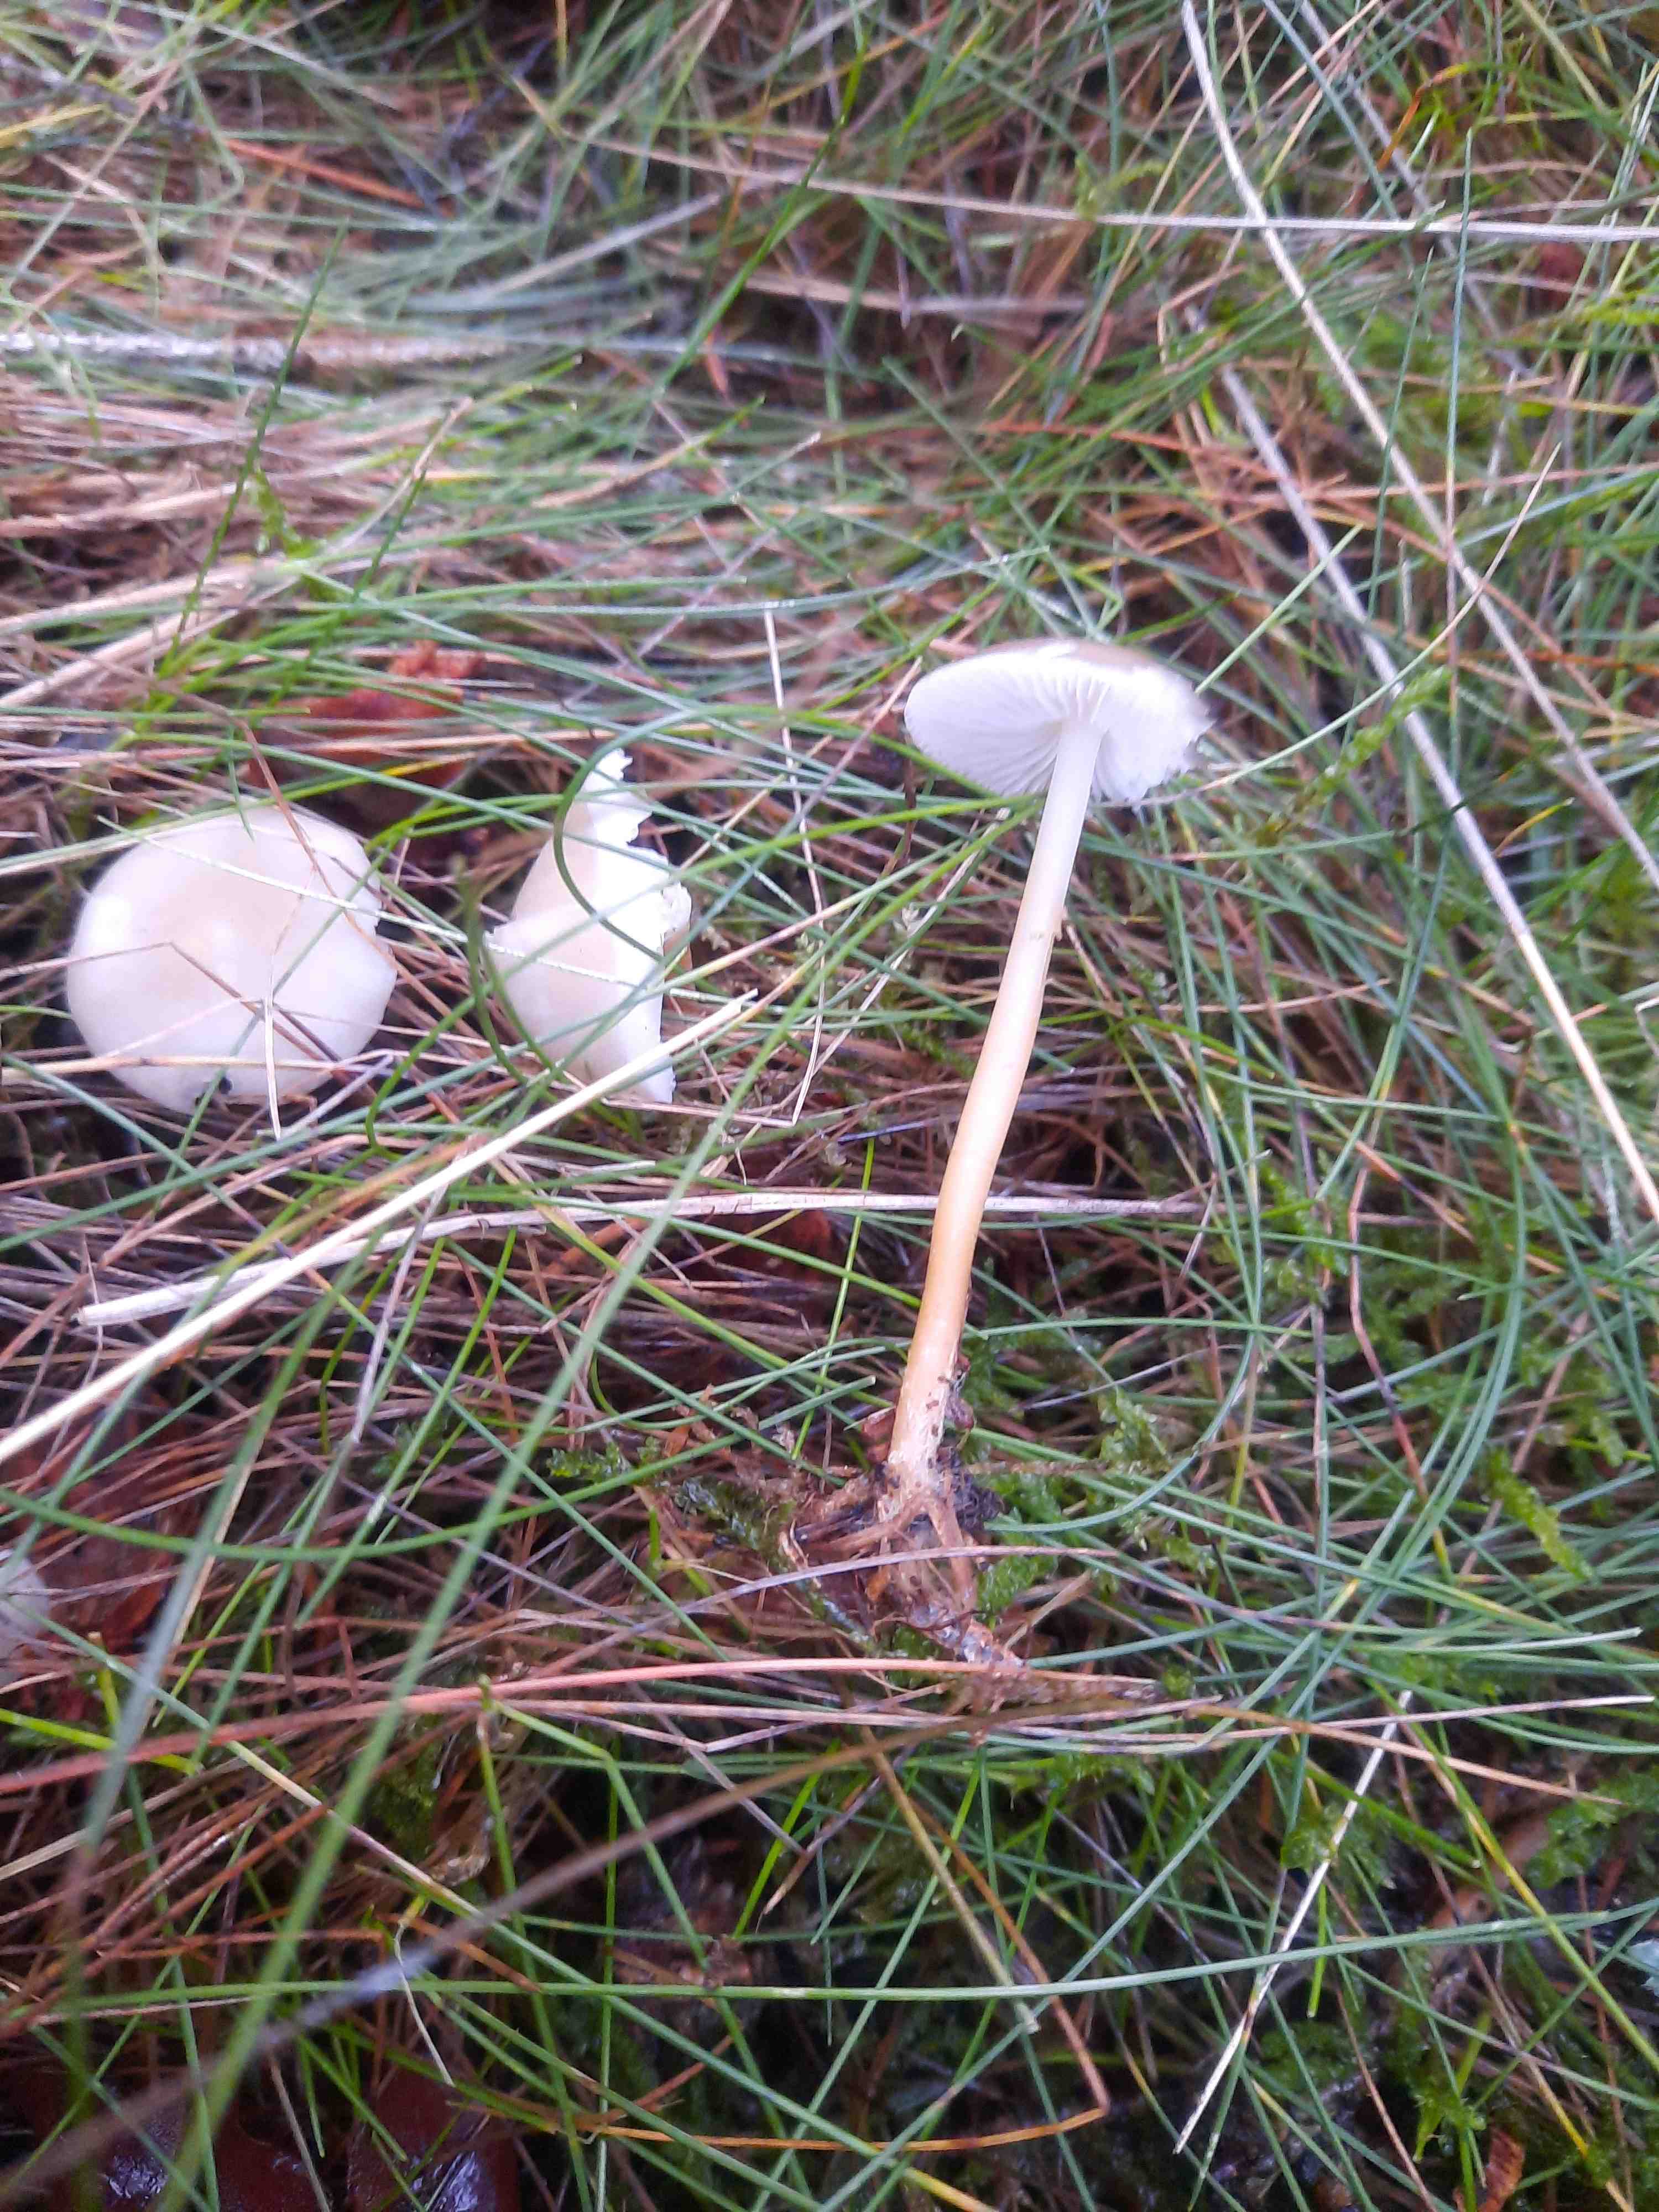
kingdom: Fungi
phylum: Basidiomycota
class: Agaricomycetes
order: Agaricales
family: Physalacriaceae
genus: Strobilurus
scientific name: Strobilurus esculentus
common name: gran-koglehat
